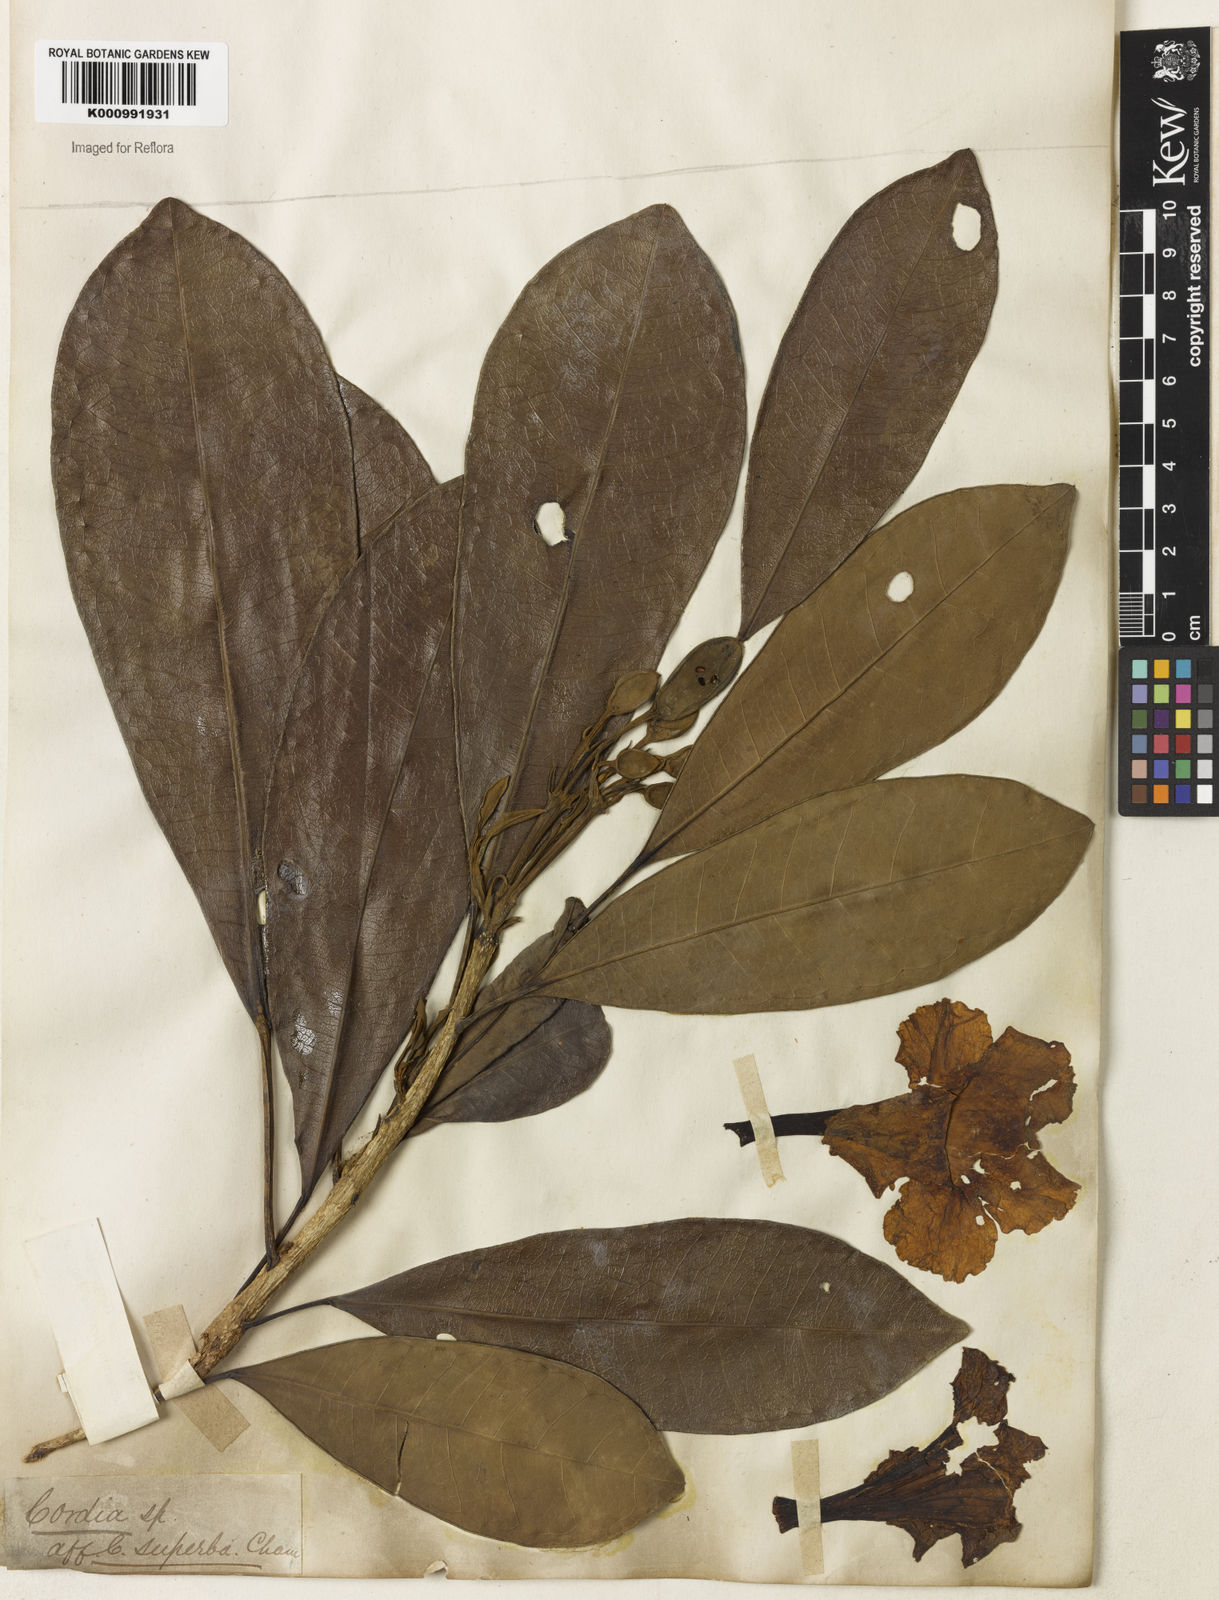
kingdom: Plantae
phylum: Tracheophyta
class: Magnoliopsida
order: Lamiales
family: Bignoniaceae
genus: Tabebuia
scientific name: Tabebuia obtusifolia
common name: Guadeloupe trumpet-tree
